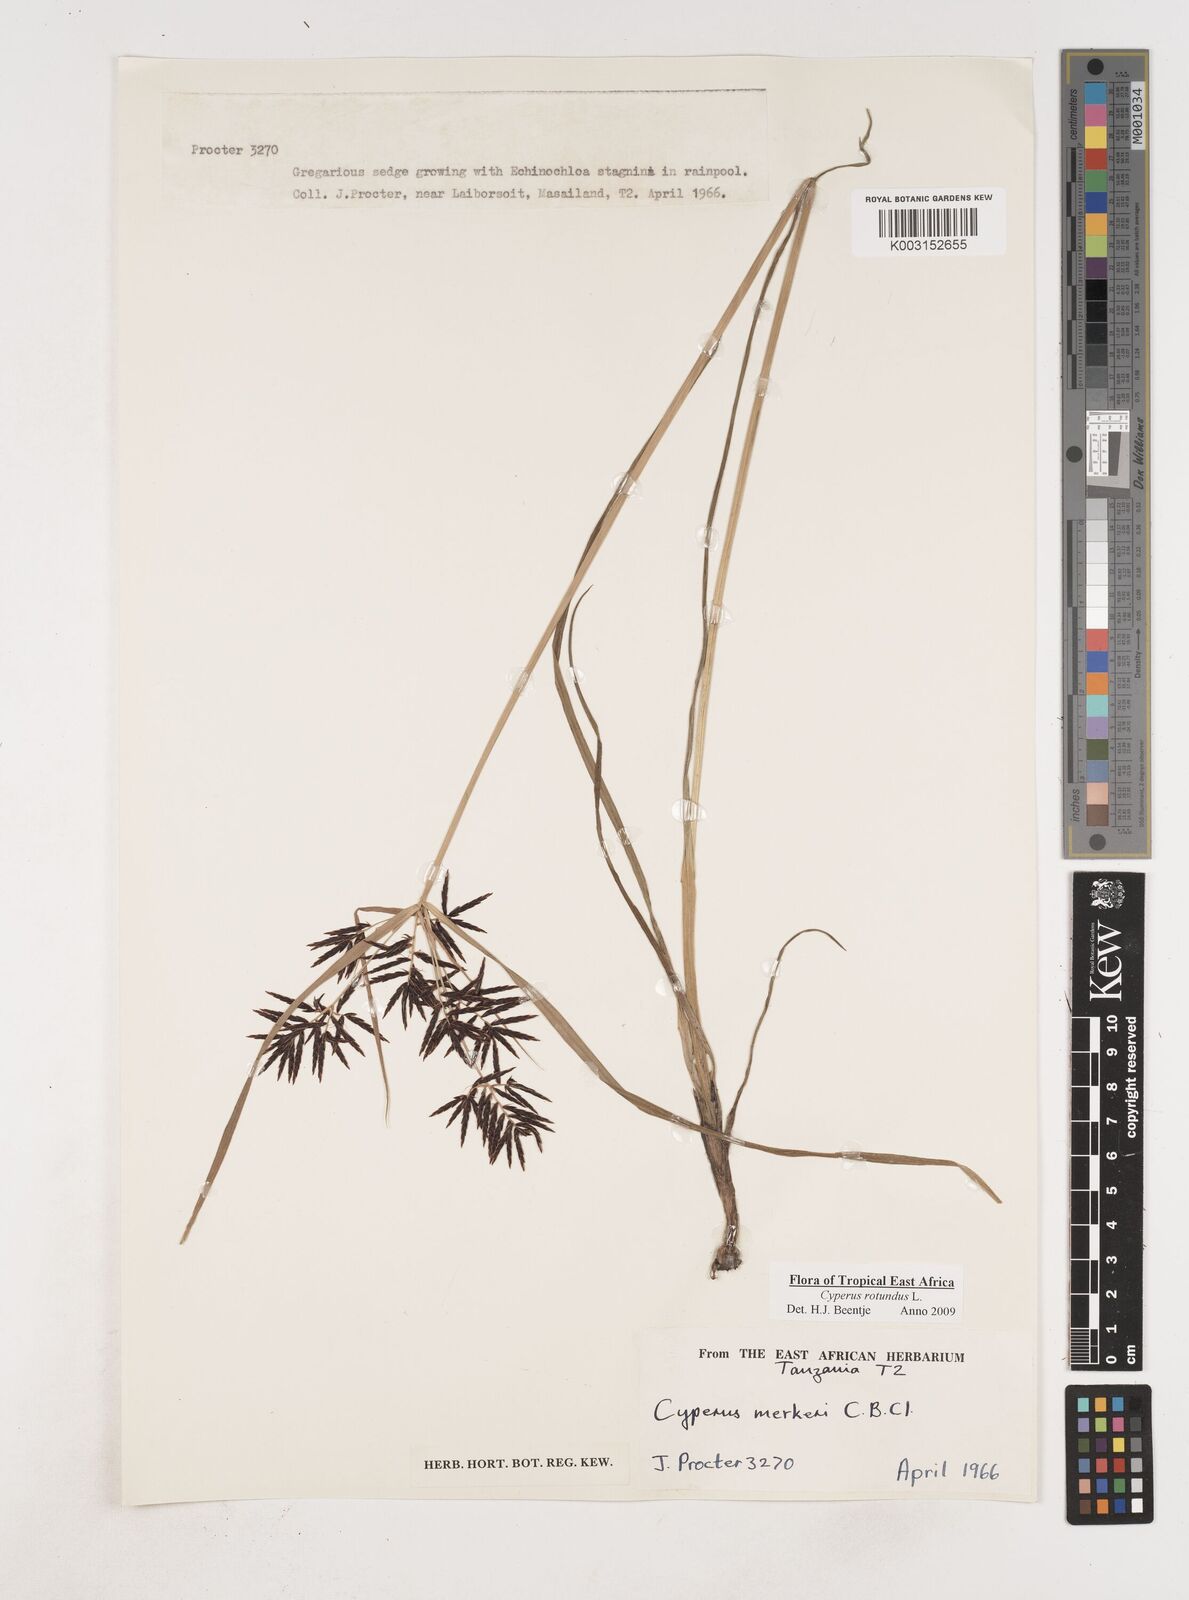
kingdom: Plantae
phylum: Tracheophyta
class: Liliopsida
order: Poales
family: Cyperaceae
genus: Cyperus
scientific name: Cyperus rotundus
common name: Nutgrass
